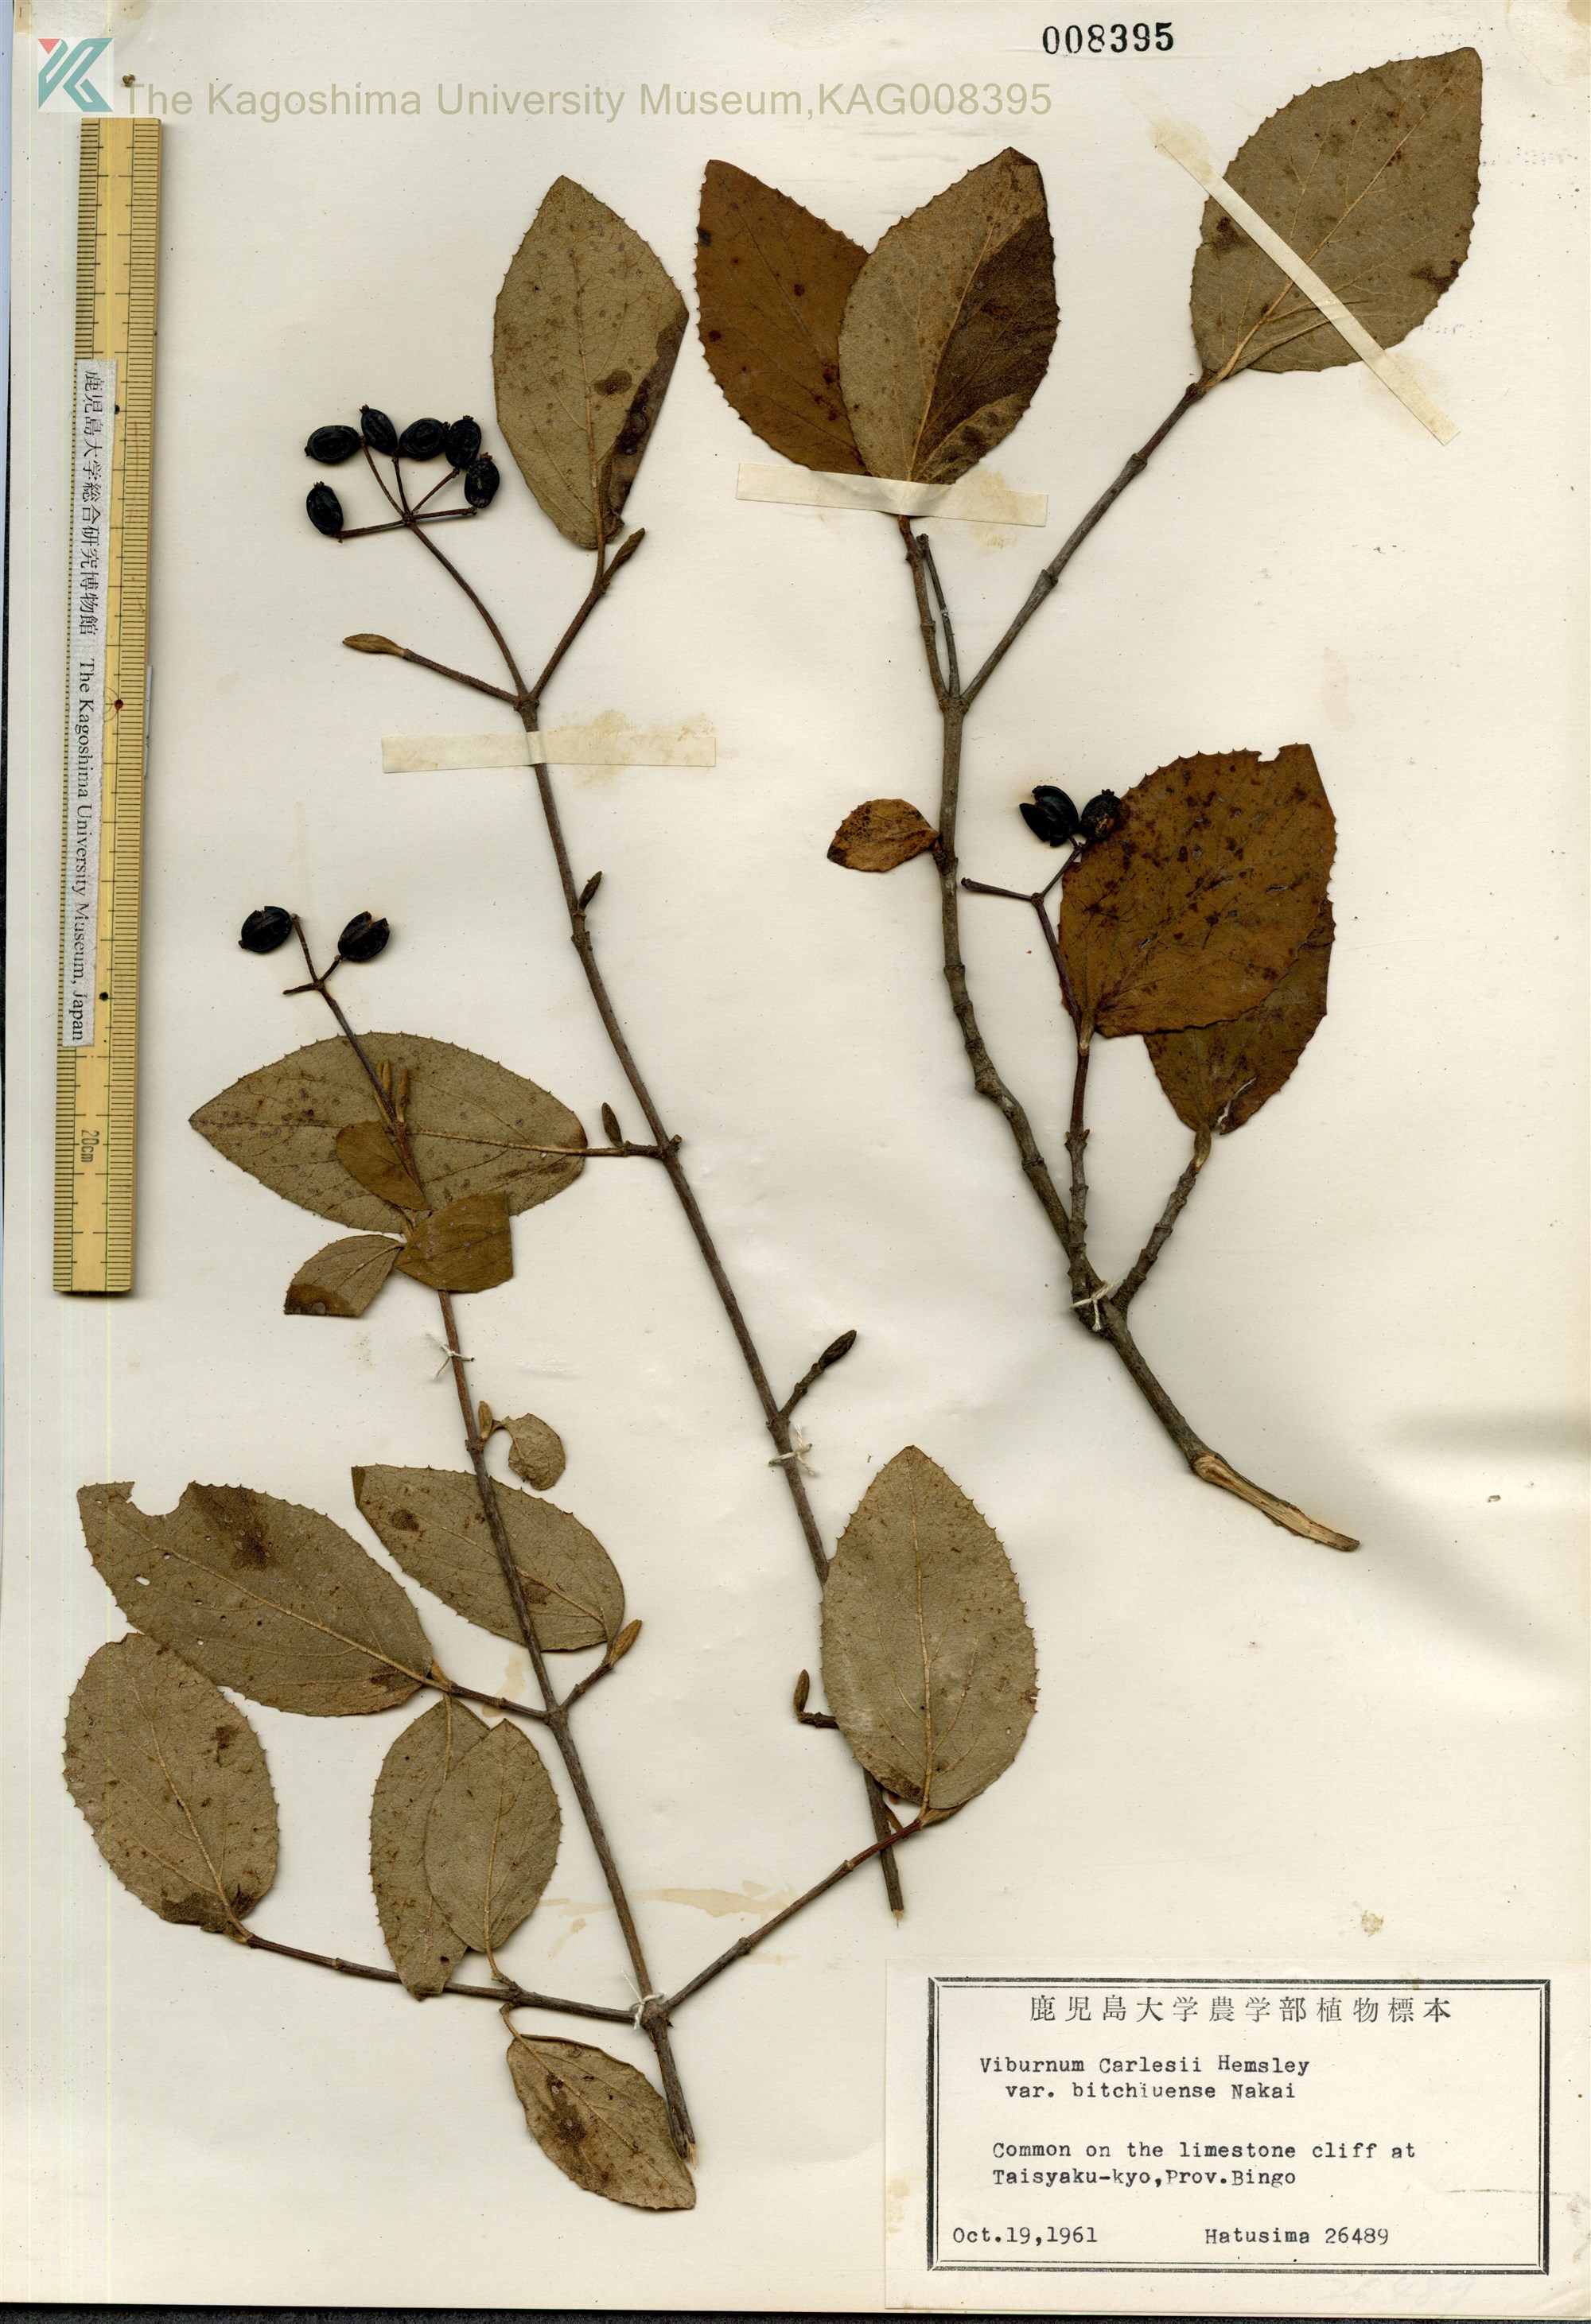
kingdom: Plantae
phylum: Tracheophyta
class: Magnoliopsida
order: Dipsacales
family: Viburnaceae
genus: Viburnum
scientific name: Viburnum carlesii
